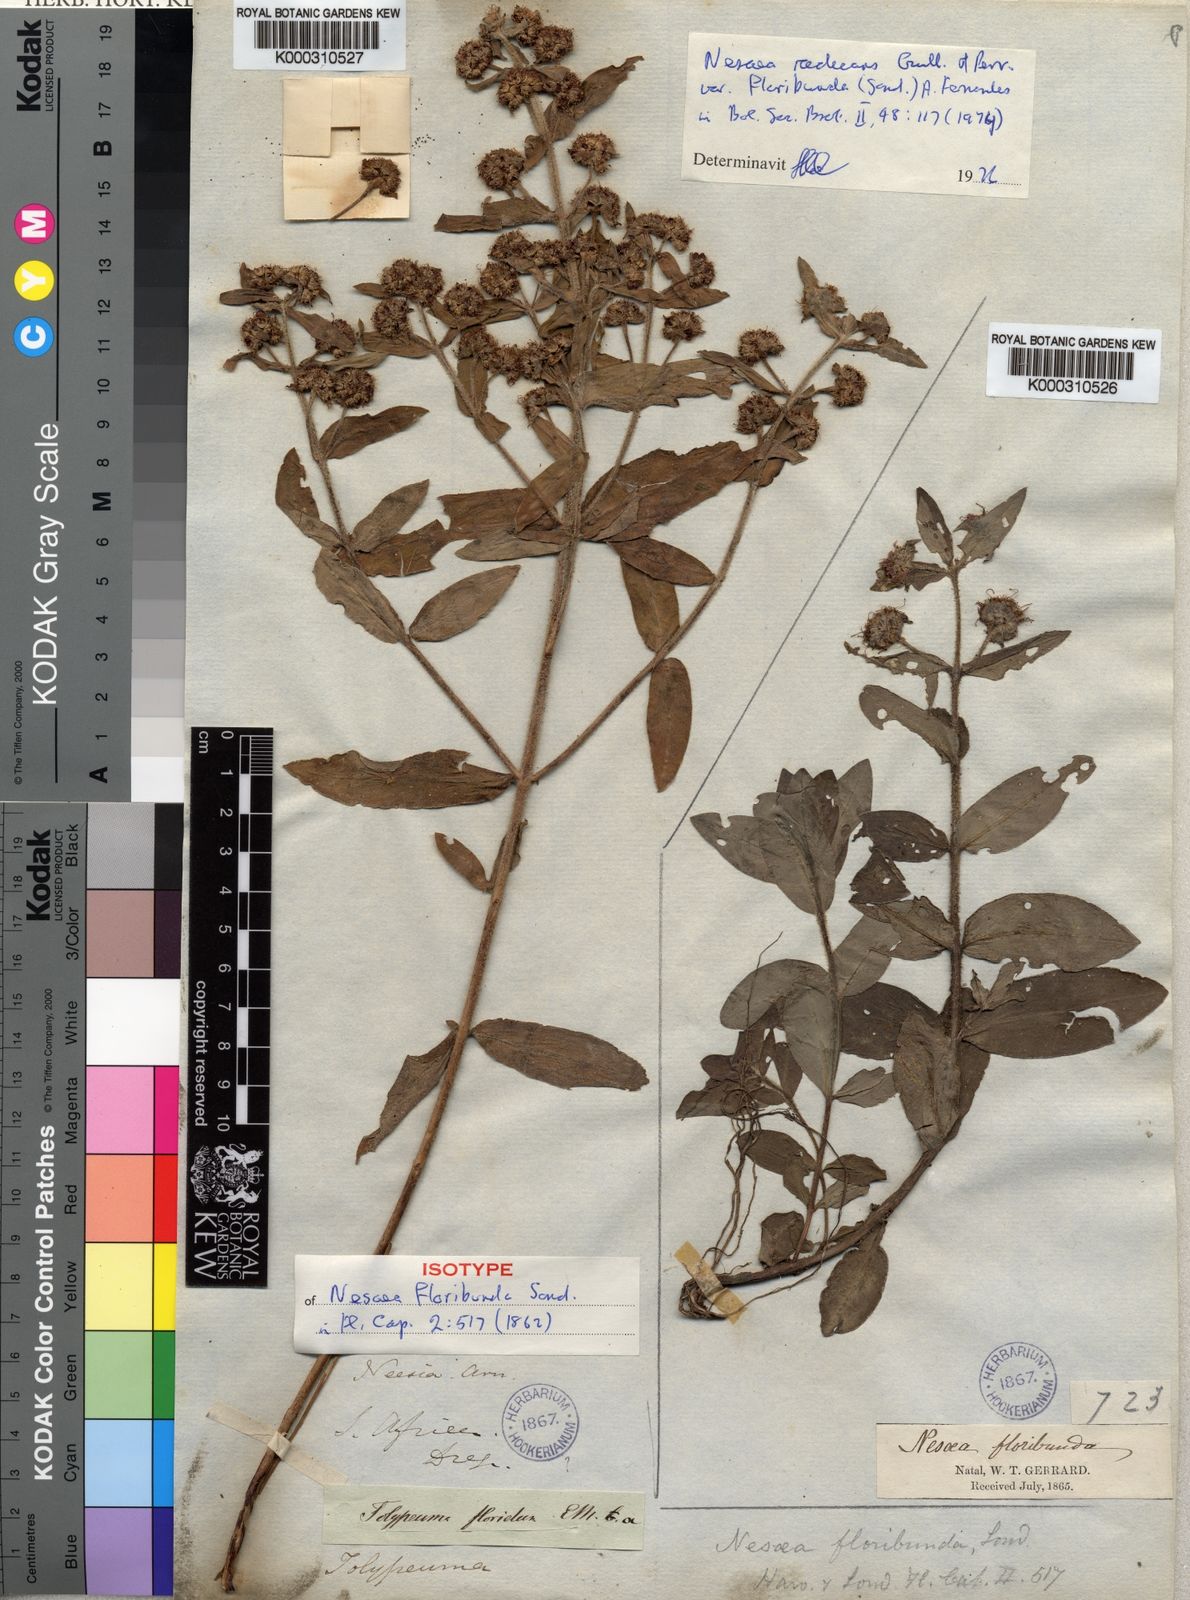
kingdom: Plantae
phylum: Tracheophyta
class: Magnoliopsida
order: Myrtales
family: Lythraceae
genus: Ammannia
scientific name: Ammannia radicans
